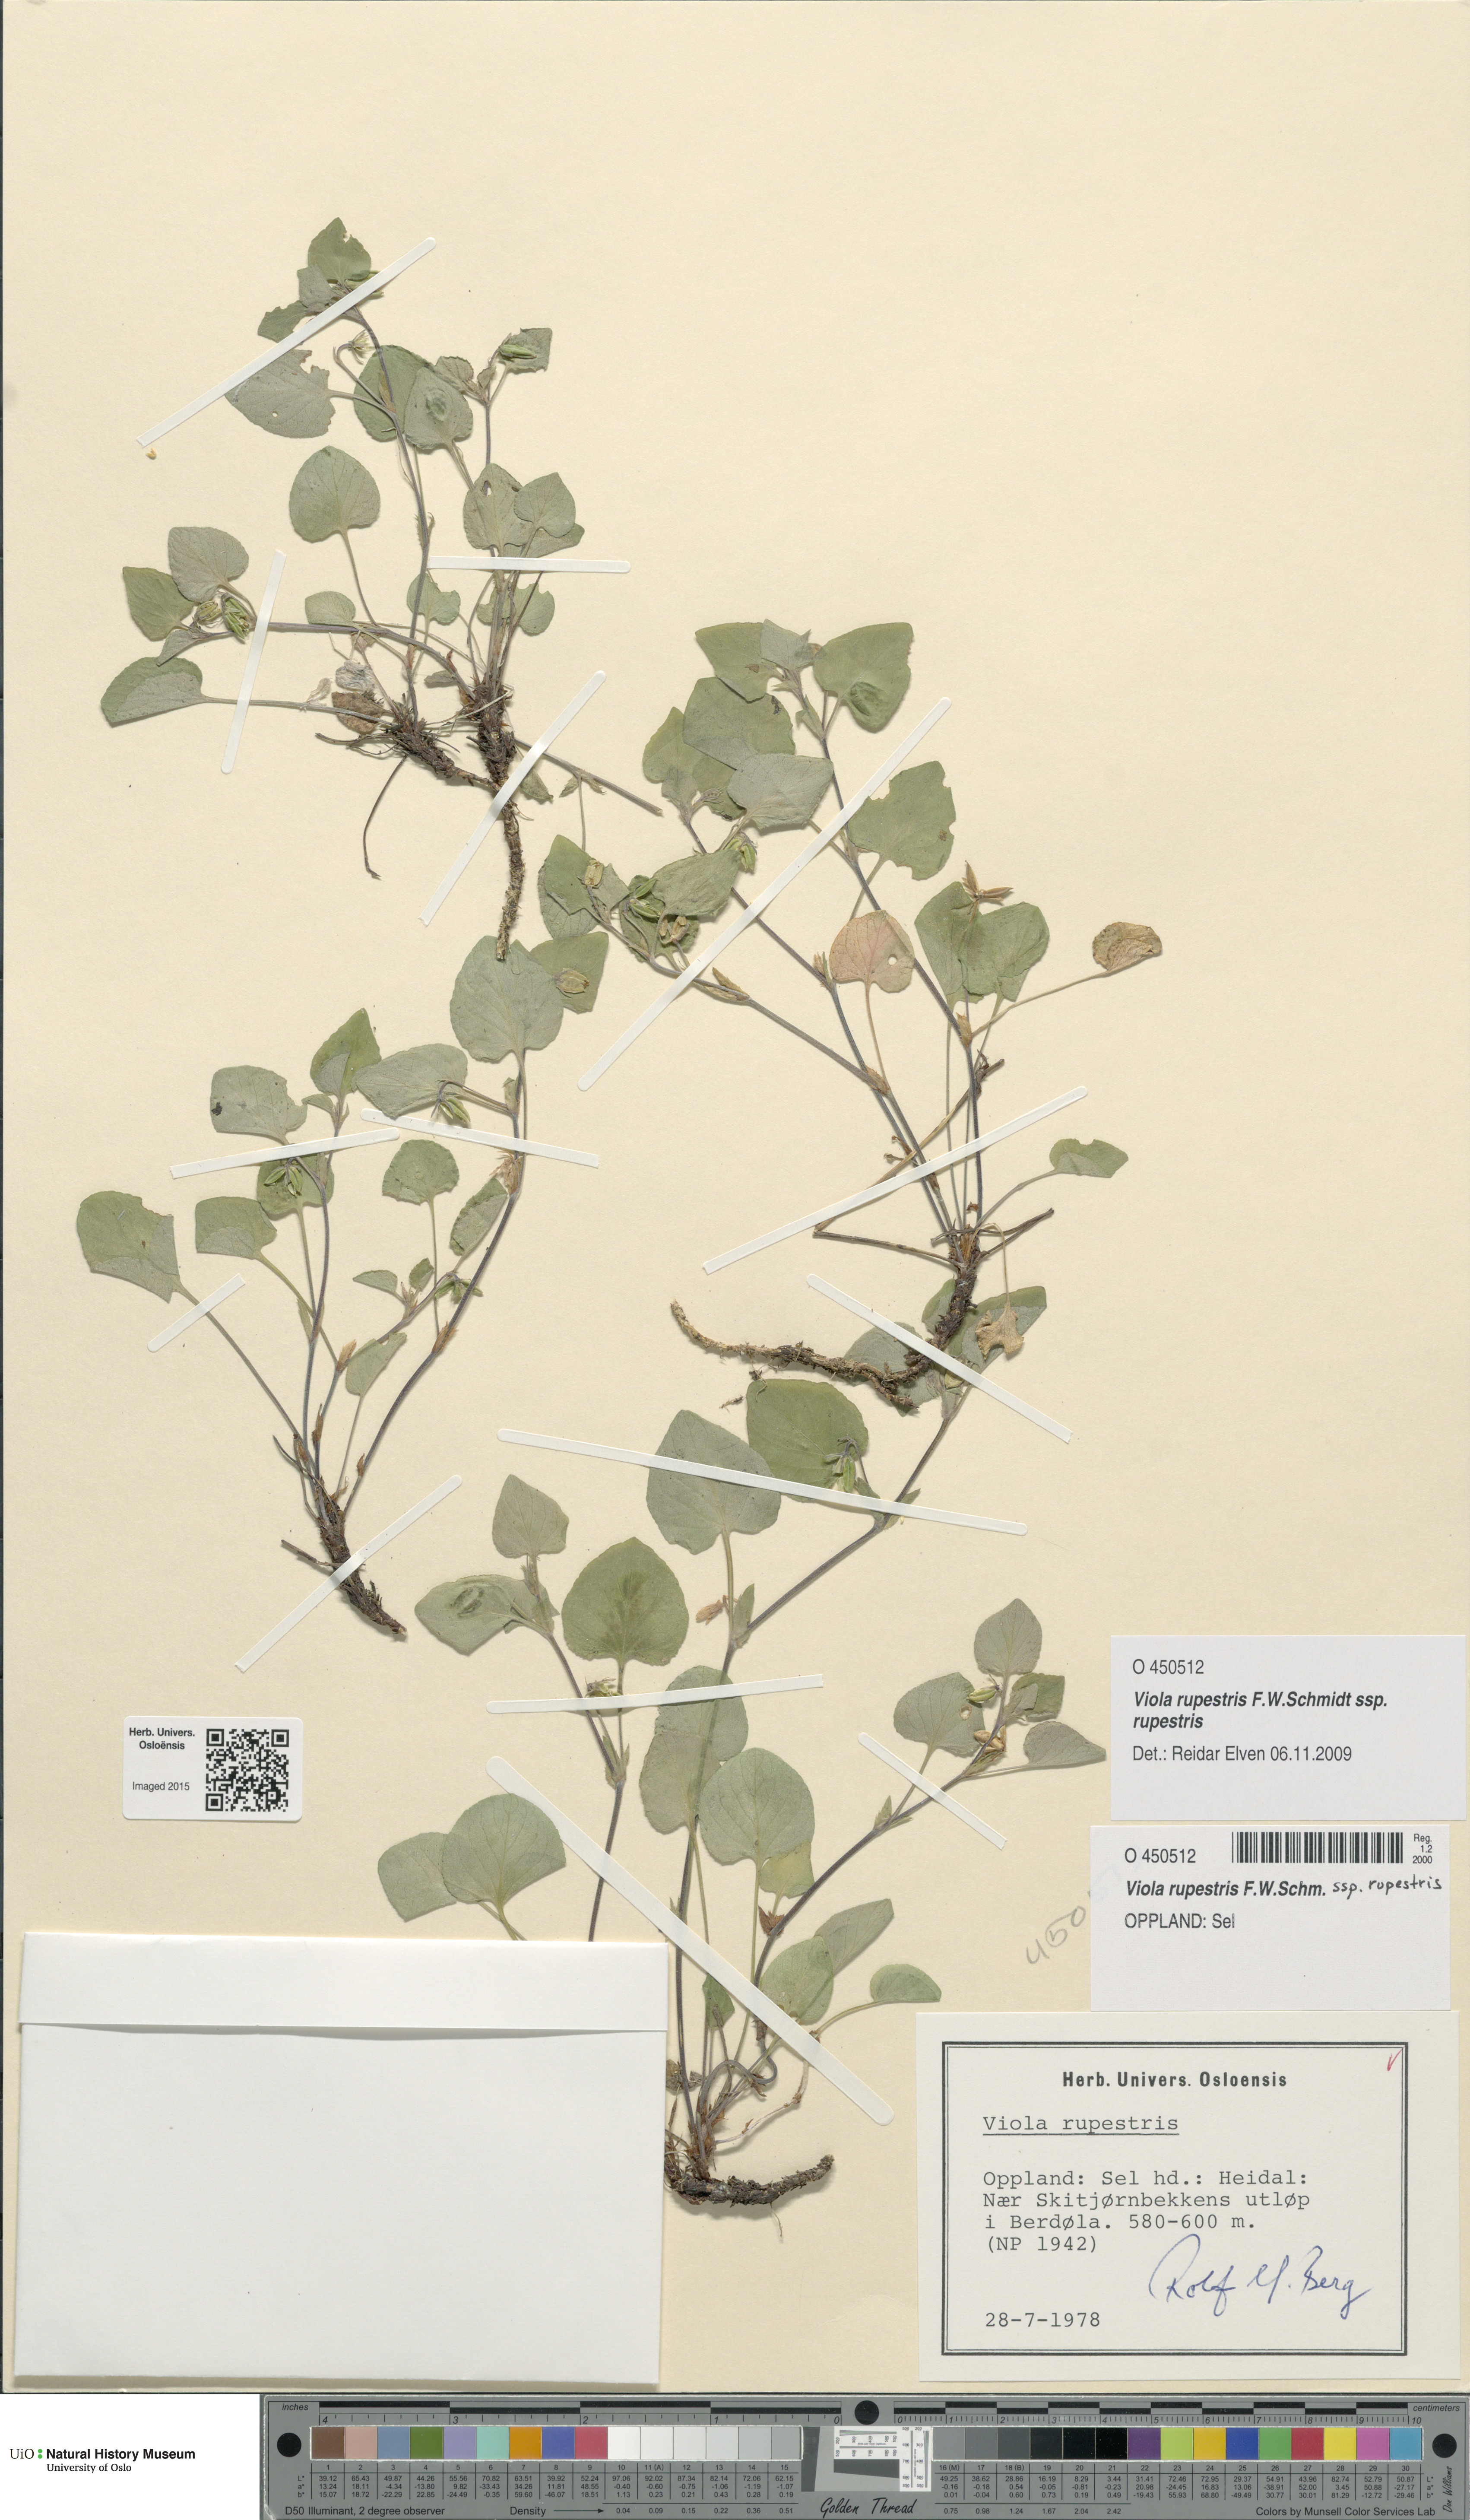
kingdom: Plantae
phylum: Tracheophyta
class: Magnoliopsida
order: Malpighiales
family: Violaceae
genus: Viola
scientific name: Viola rupestris
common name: Teesdale violet
